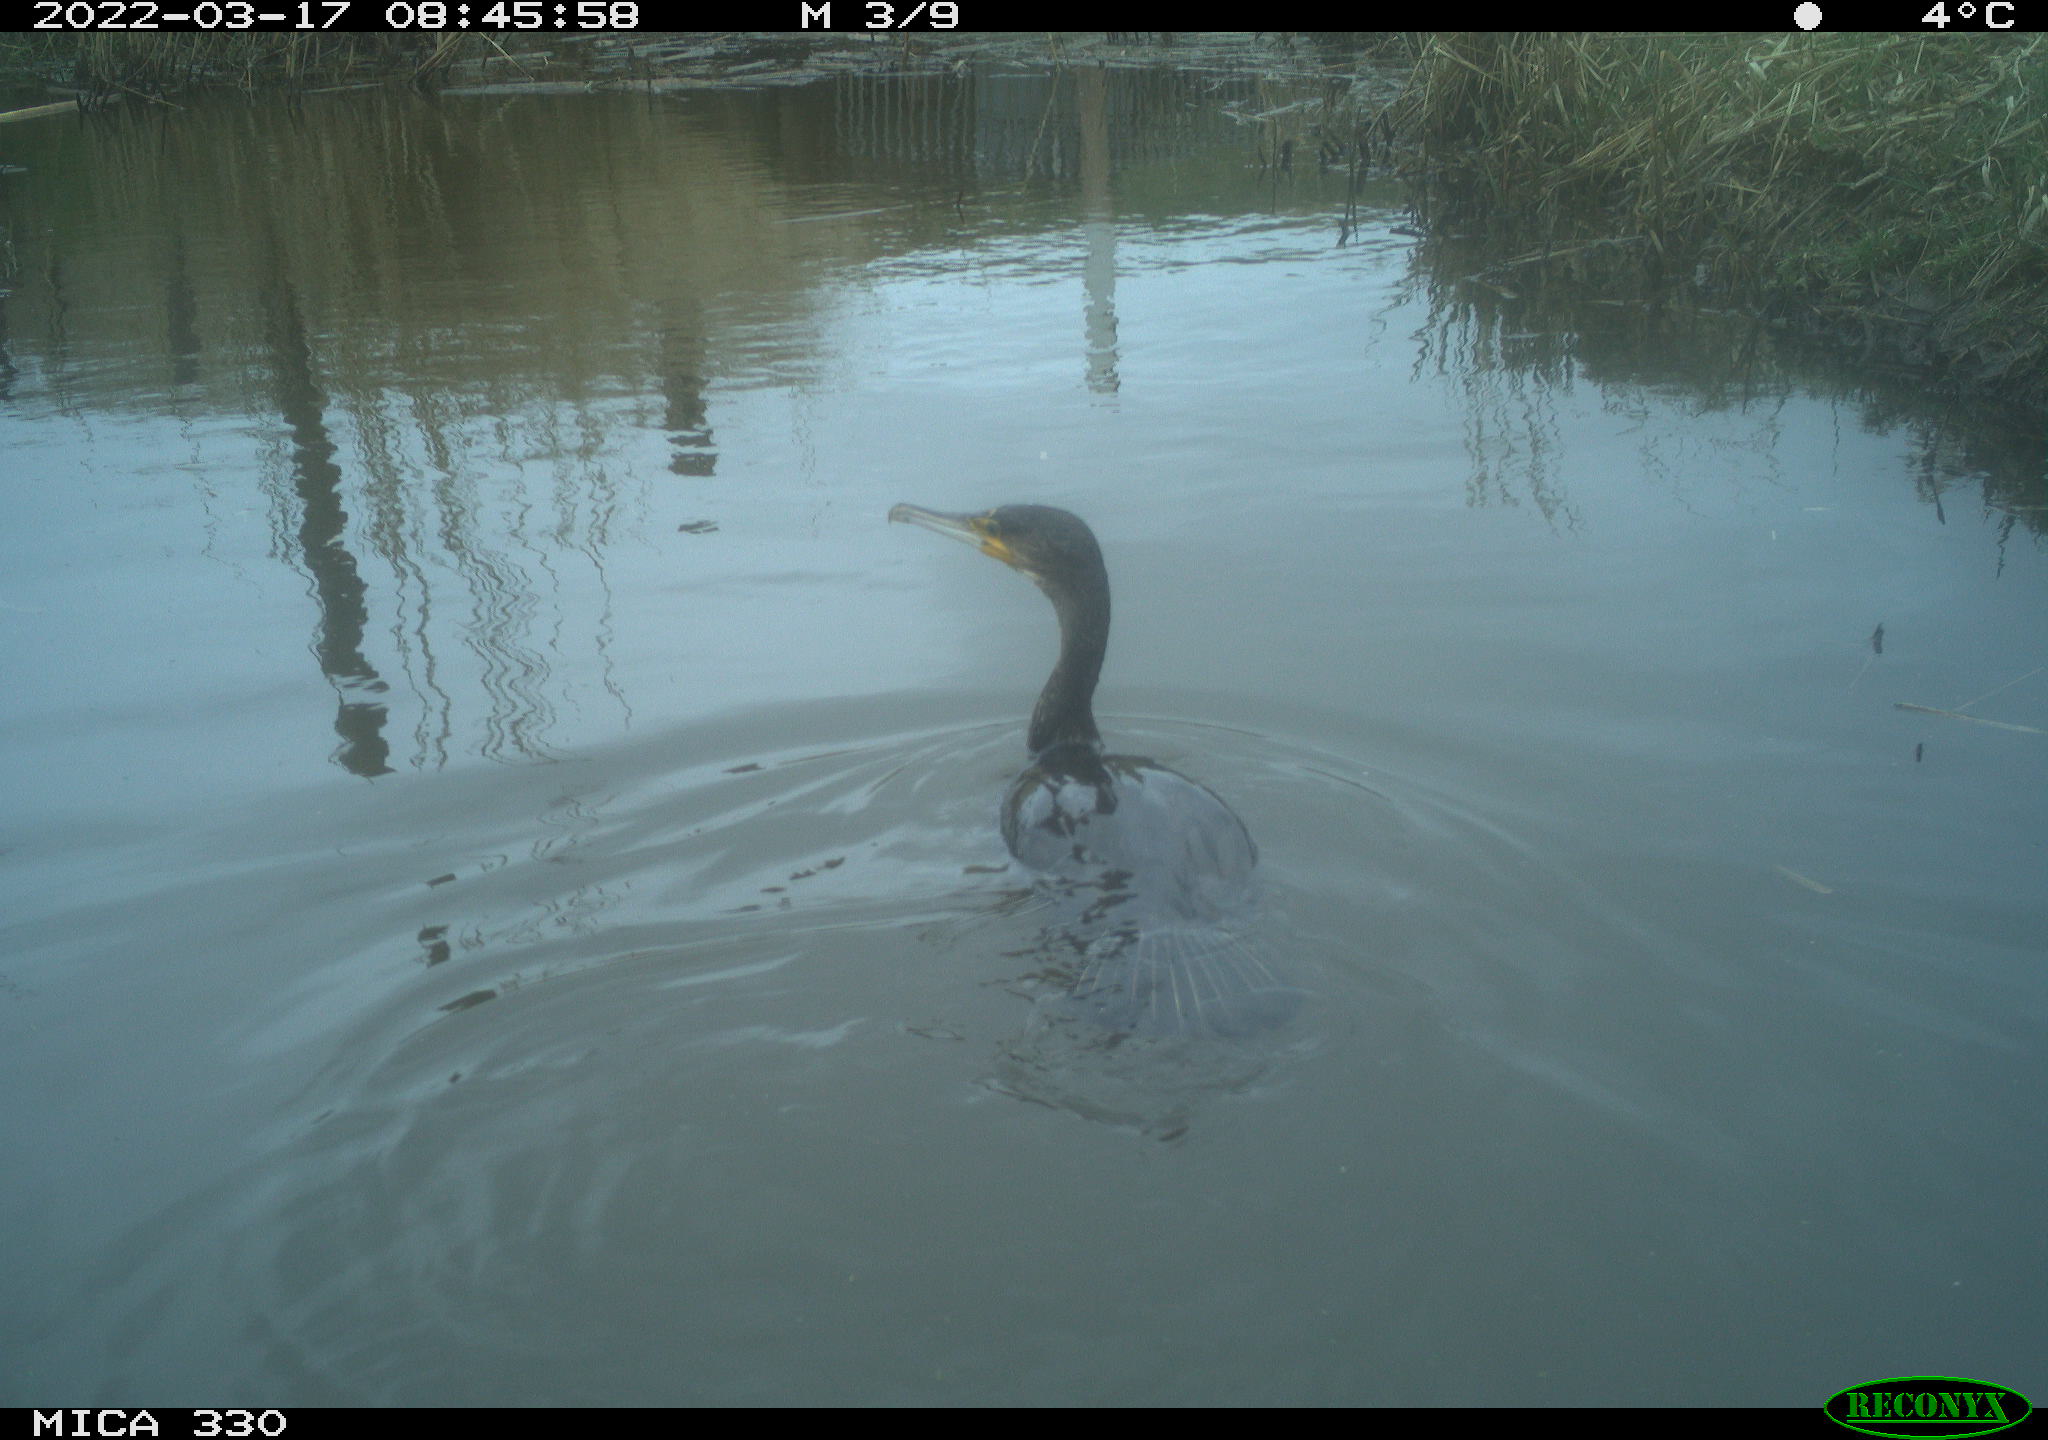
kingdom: Animalia
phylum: Chordata
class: Aves
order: Suliformes
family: Phalacrocoracidae
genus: Phalacrocorax
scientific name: Phalacrocorax carbo
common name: Great cormorant
